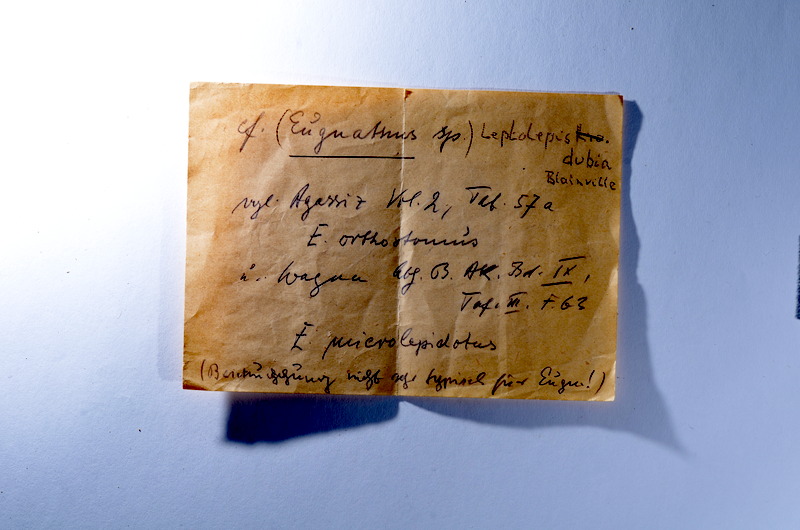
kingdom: Animalia
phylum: Chordata
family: Ascalaboidae
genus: Tharsis
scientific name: Tharsis dubius
